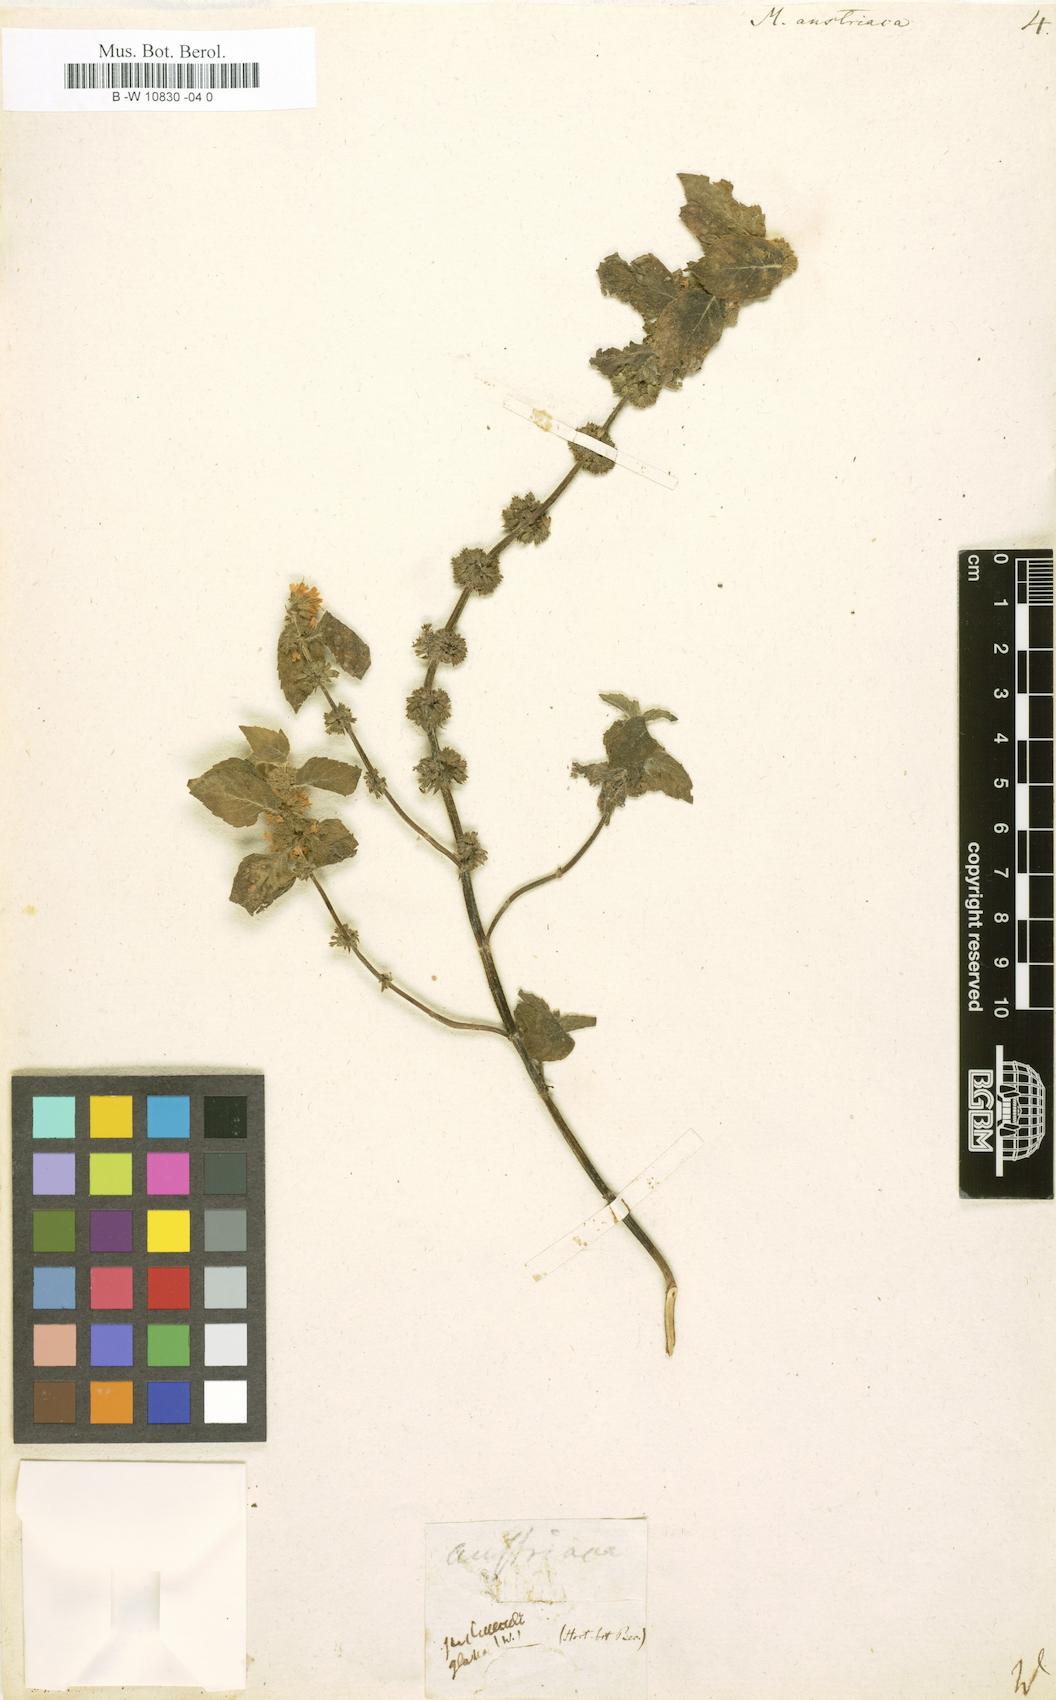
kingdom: Plantae
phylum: Tracheophyta
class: Magnoliopsida
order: Lamiales
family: Lamiaceae
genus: Mentha
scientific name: Mentha arvensis
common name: Corn mint
